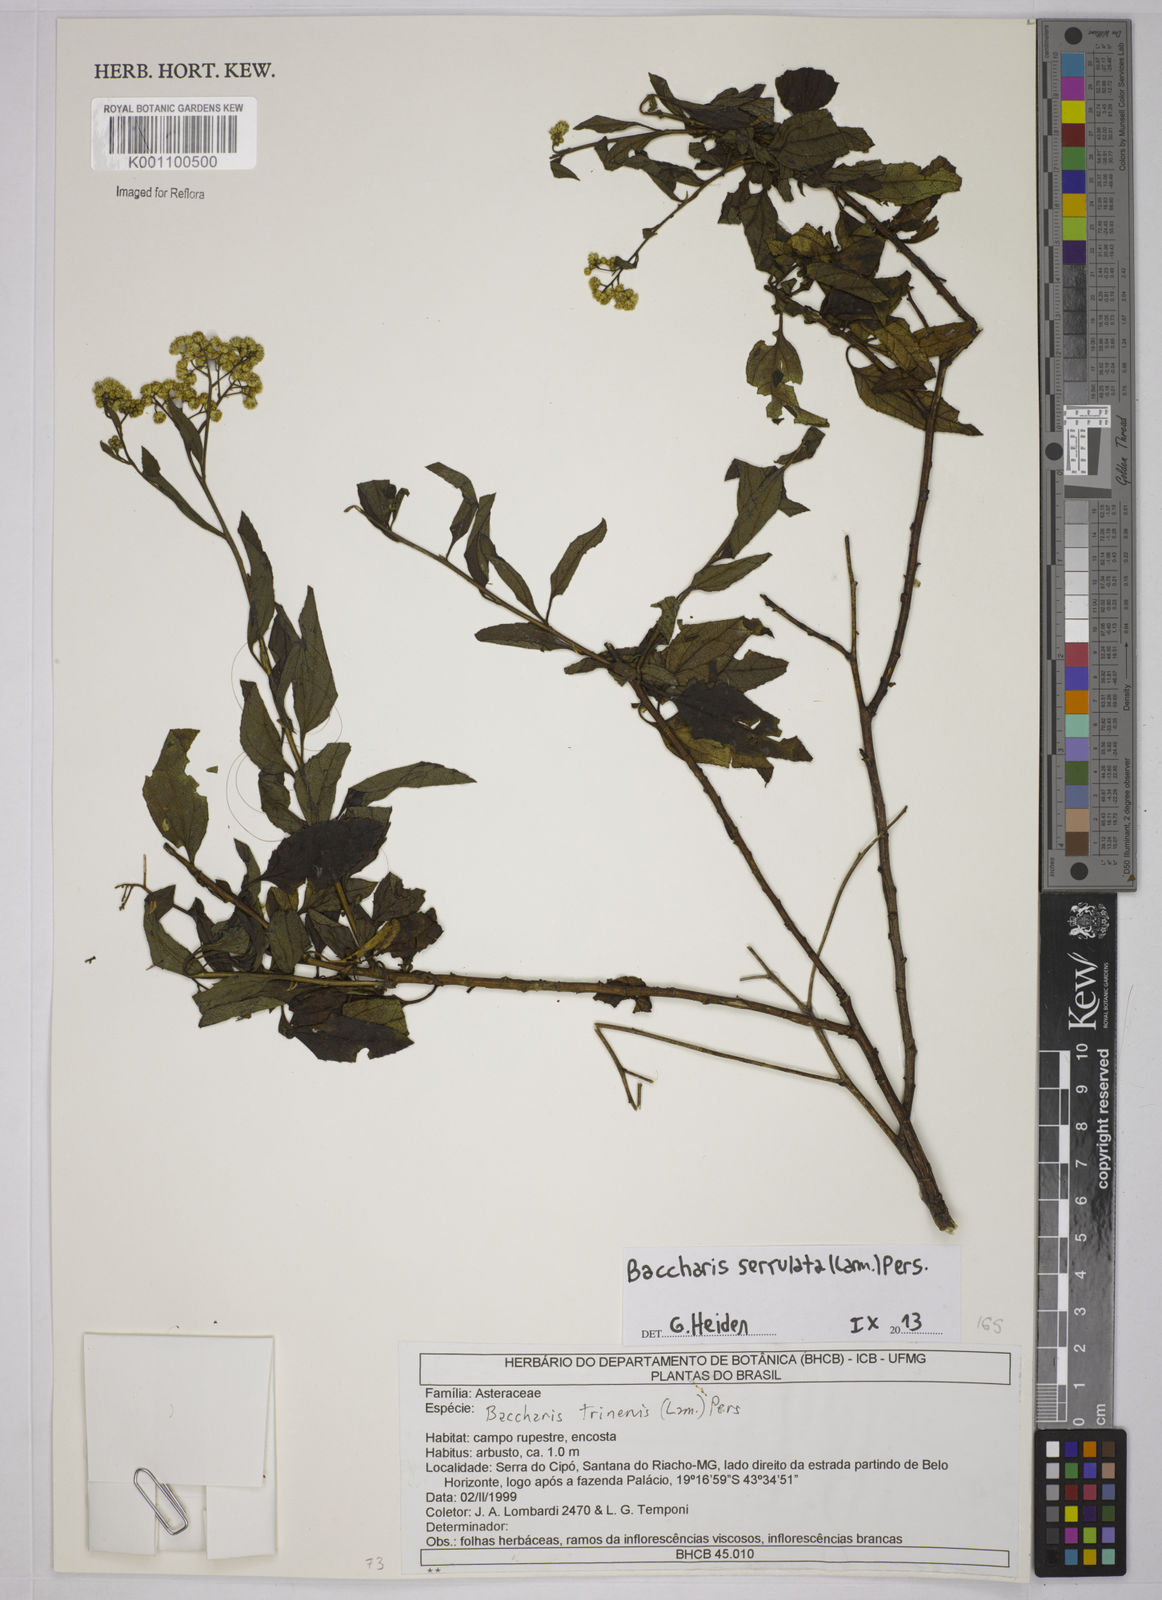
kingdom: Plantae
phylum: Tracheophyta
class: Magnoliopsida
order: Asterales
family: Asteraceae
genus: Baccharis
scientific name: Baccharis serrulata
